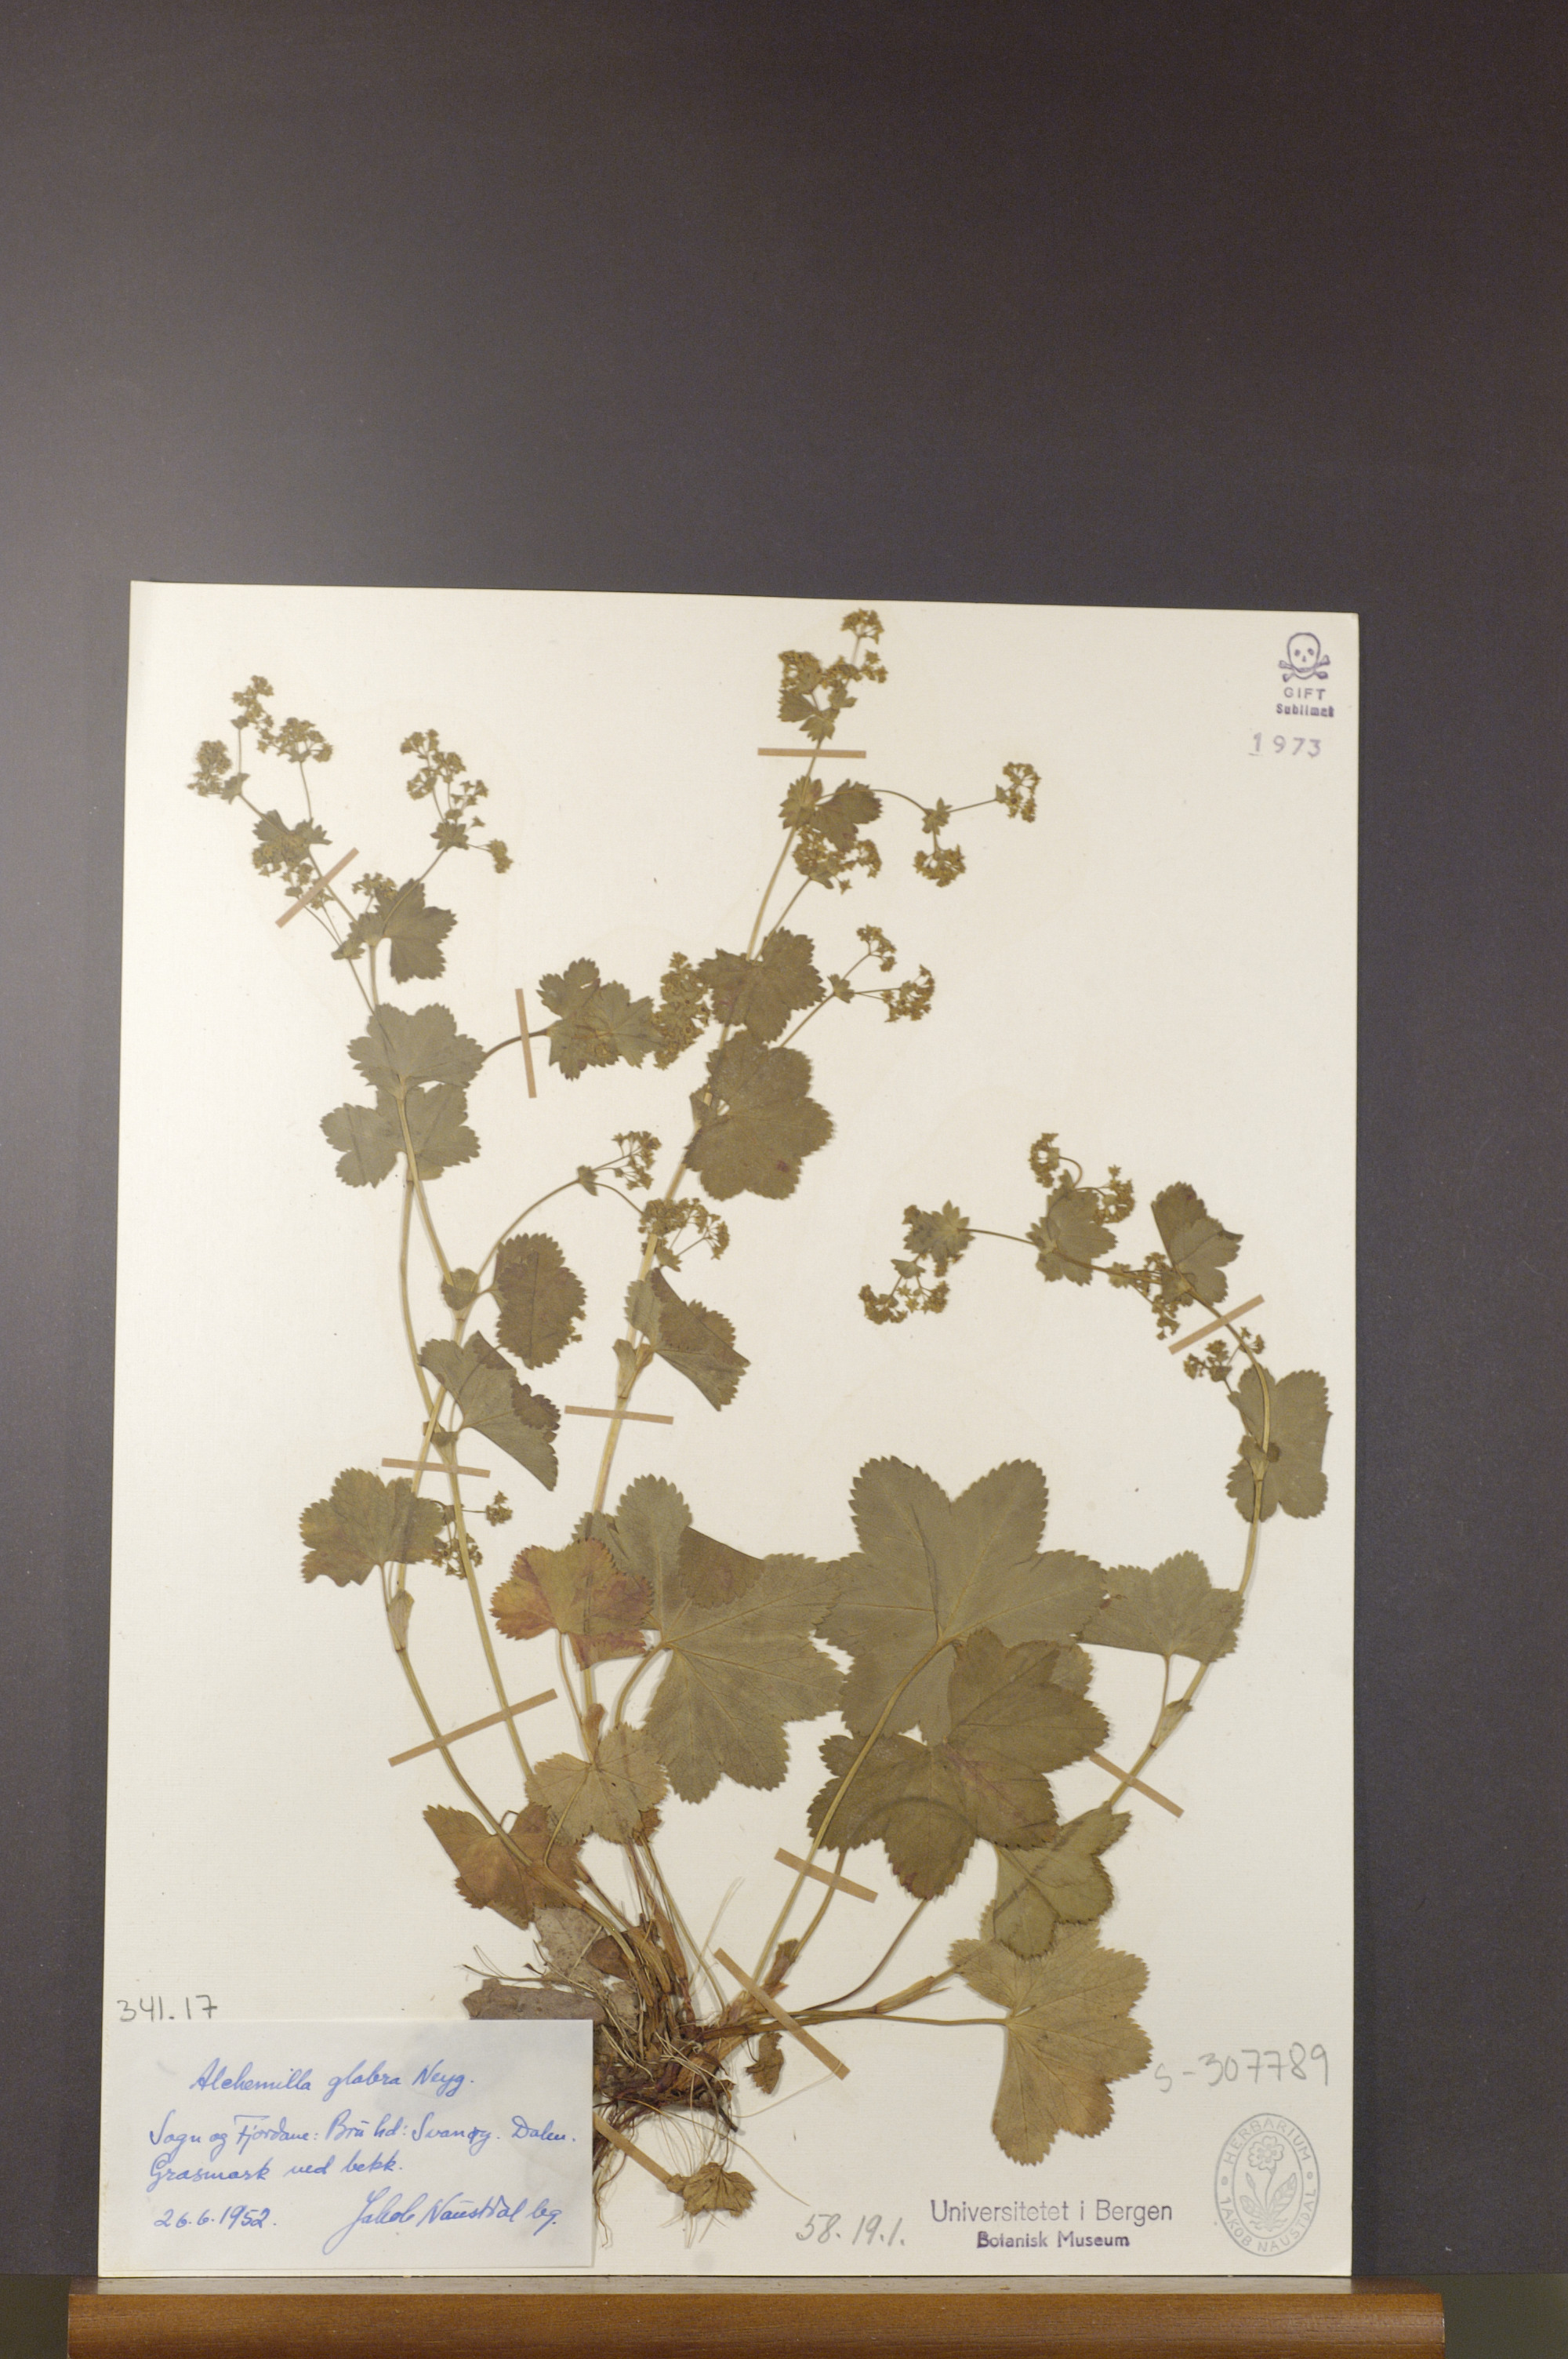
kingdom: Plantae
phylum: Tracheophyta
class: Magnoliopsida
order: Rosales
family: Rosaceae
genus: Alchemilla
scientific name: Alchemilla glabra
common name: Smooth lady's-mantle
